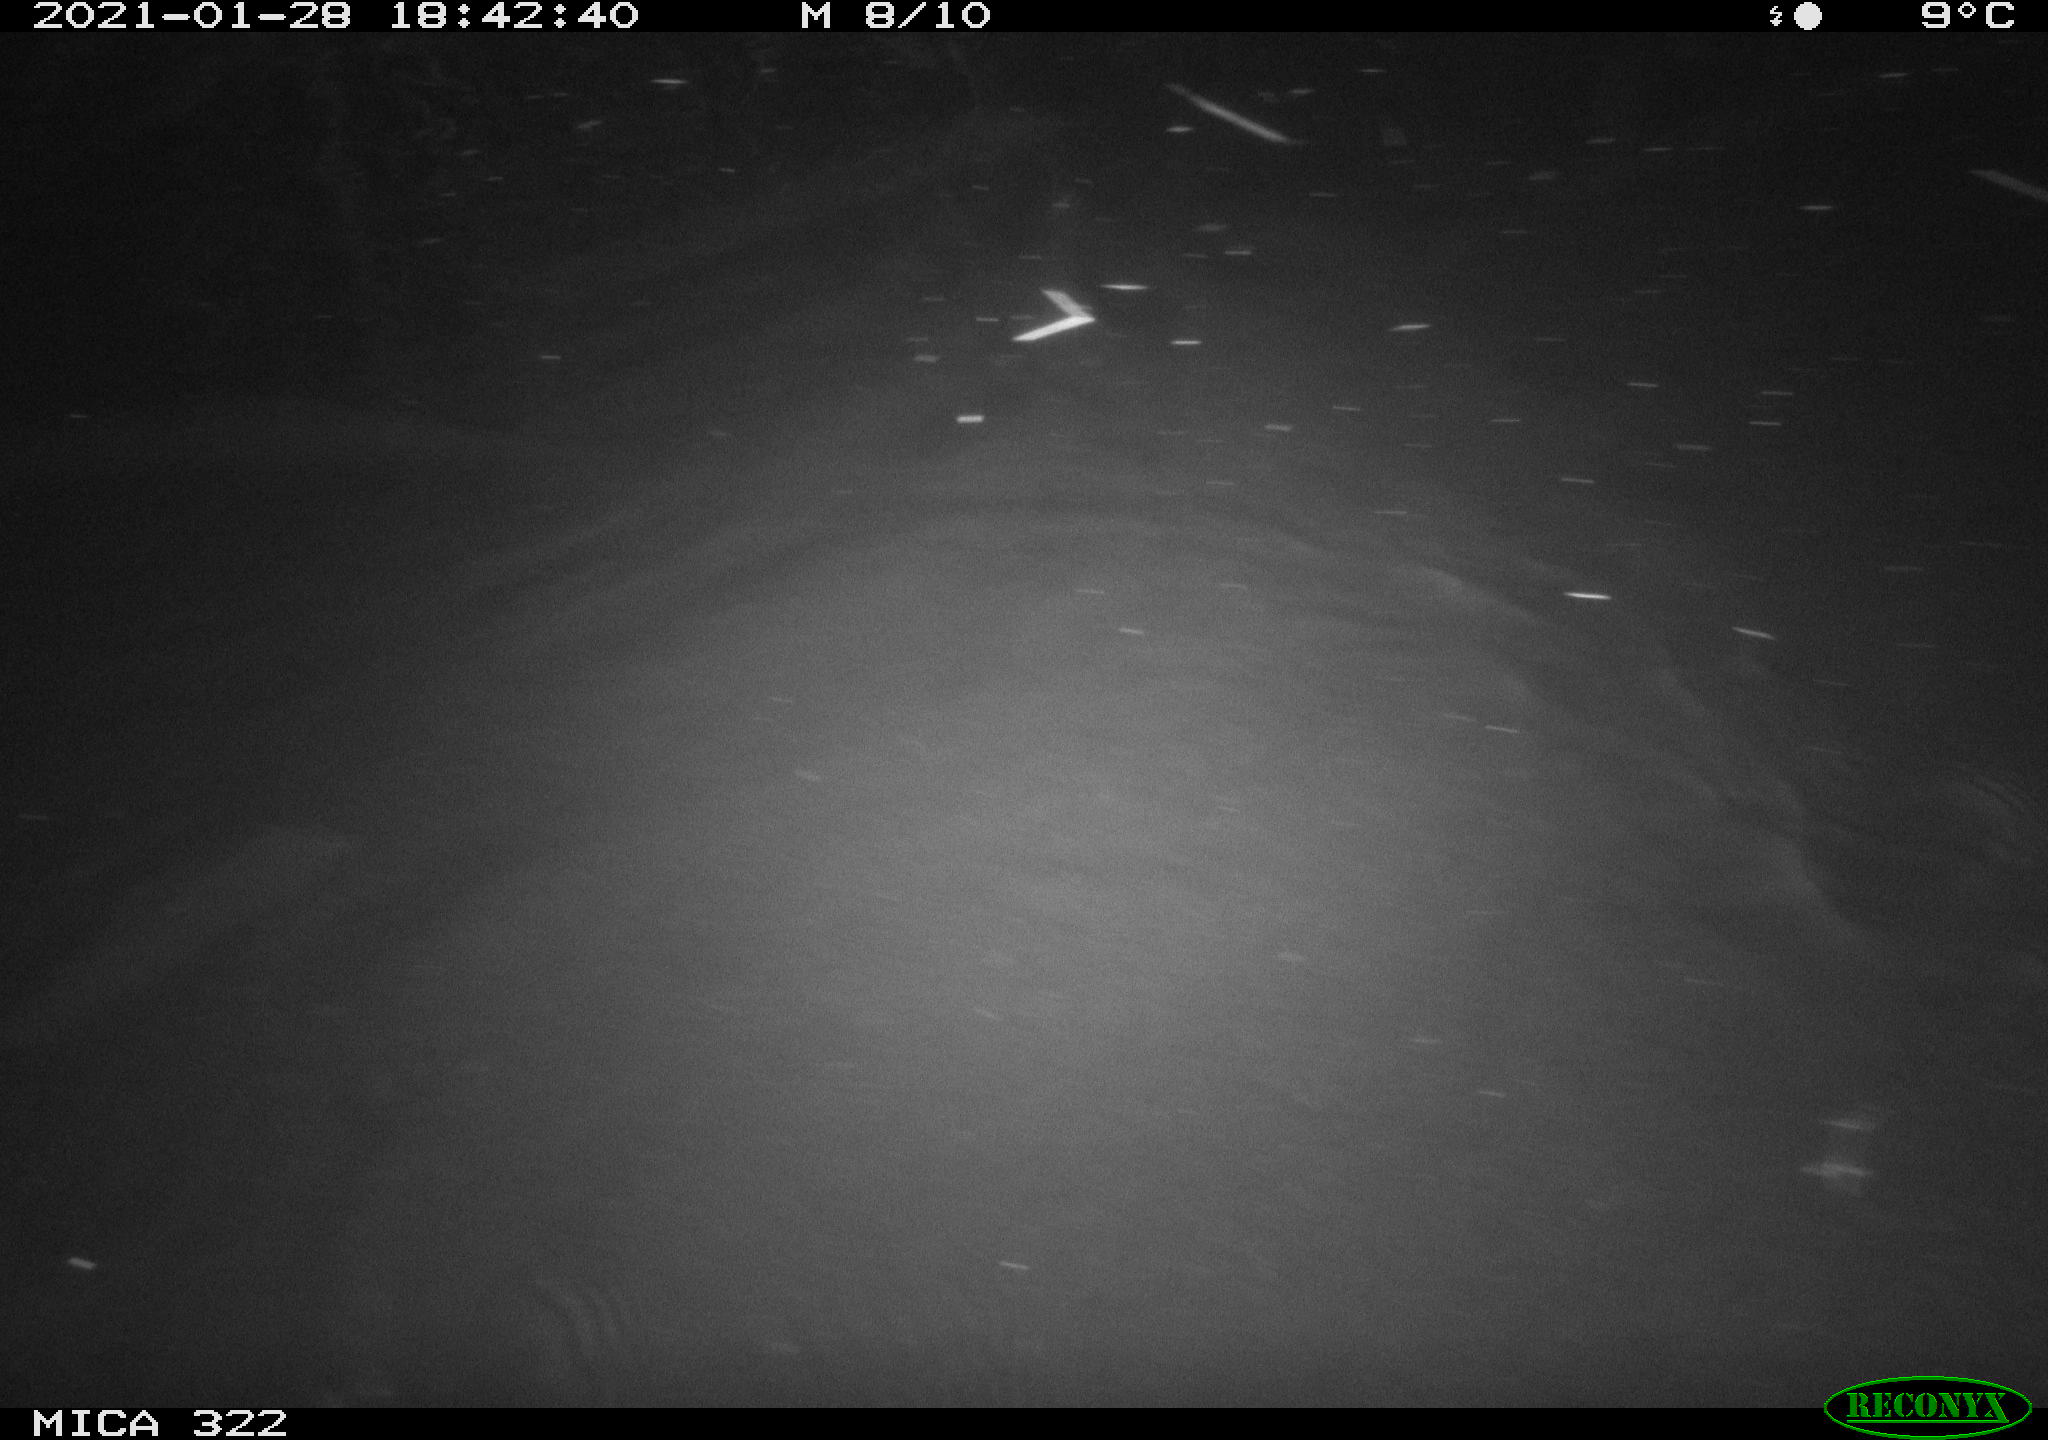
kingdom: Animalia
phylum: Chordata
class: Mammalia
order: Rodentia
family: Muridae
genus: Rattus
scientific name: Rattus norvegicus
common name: Brown rat
